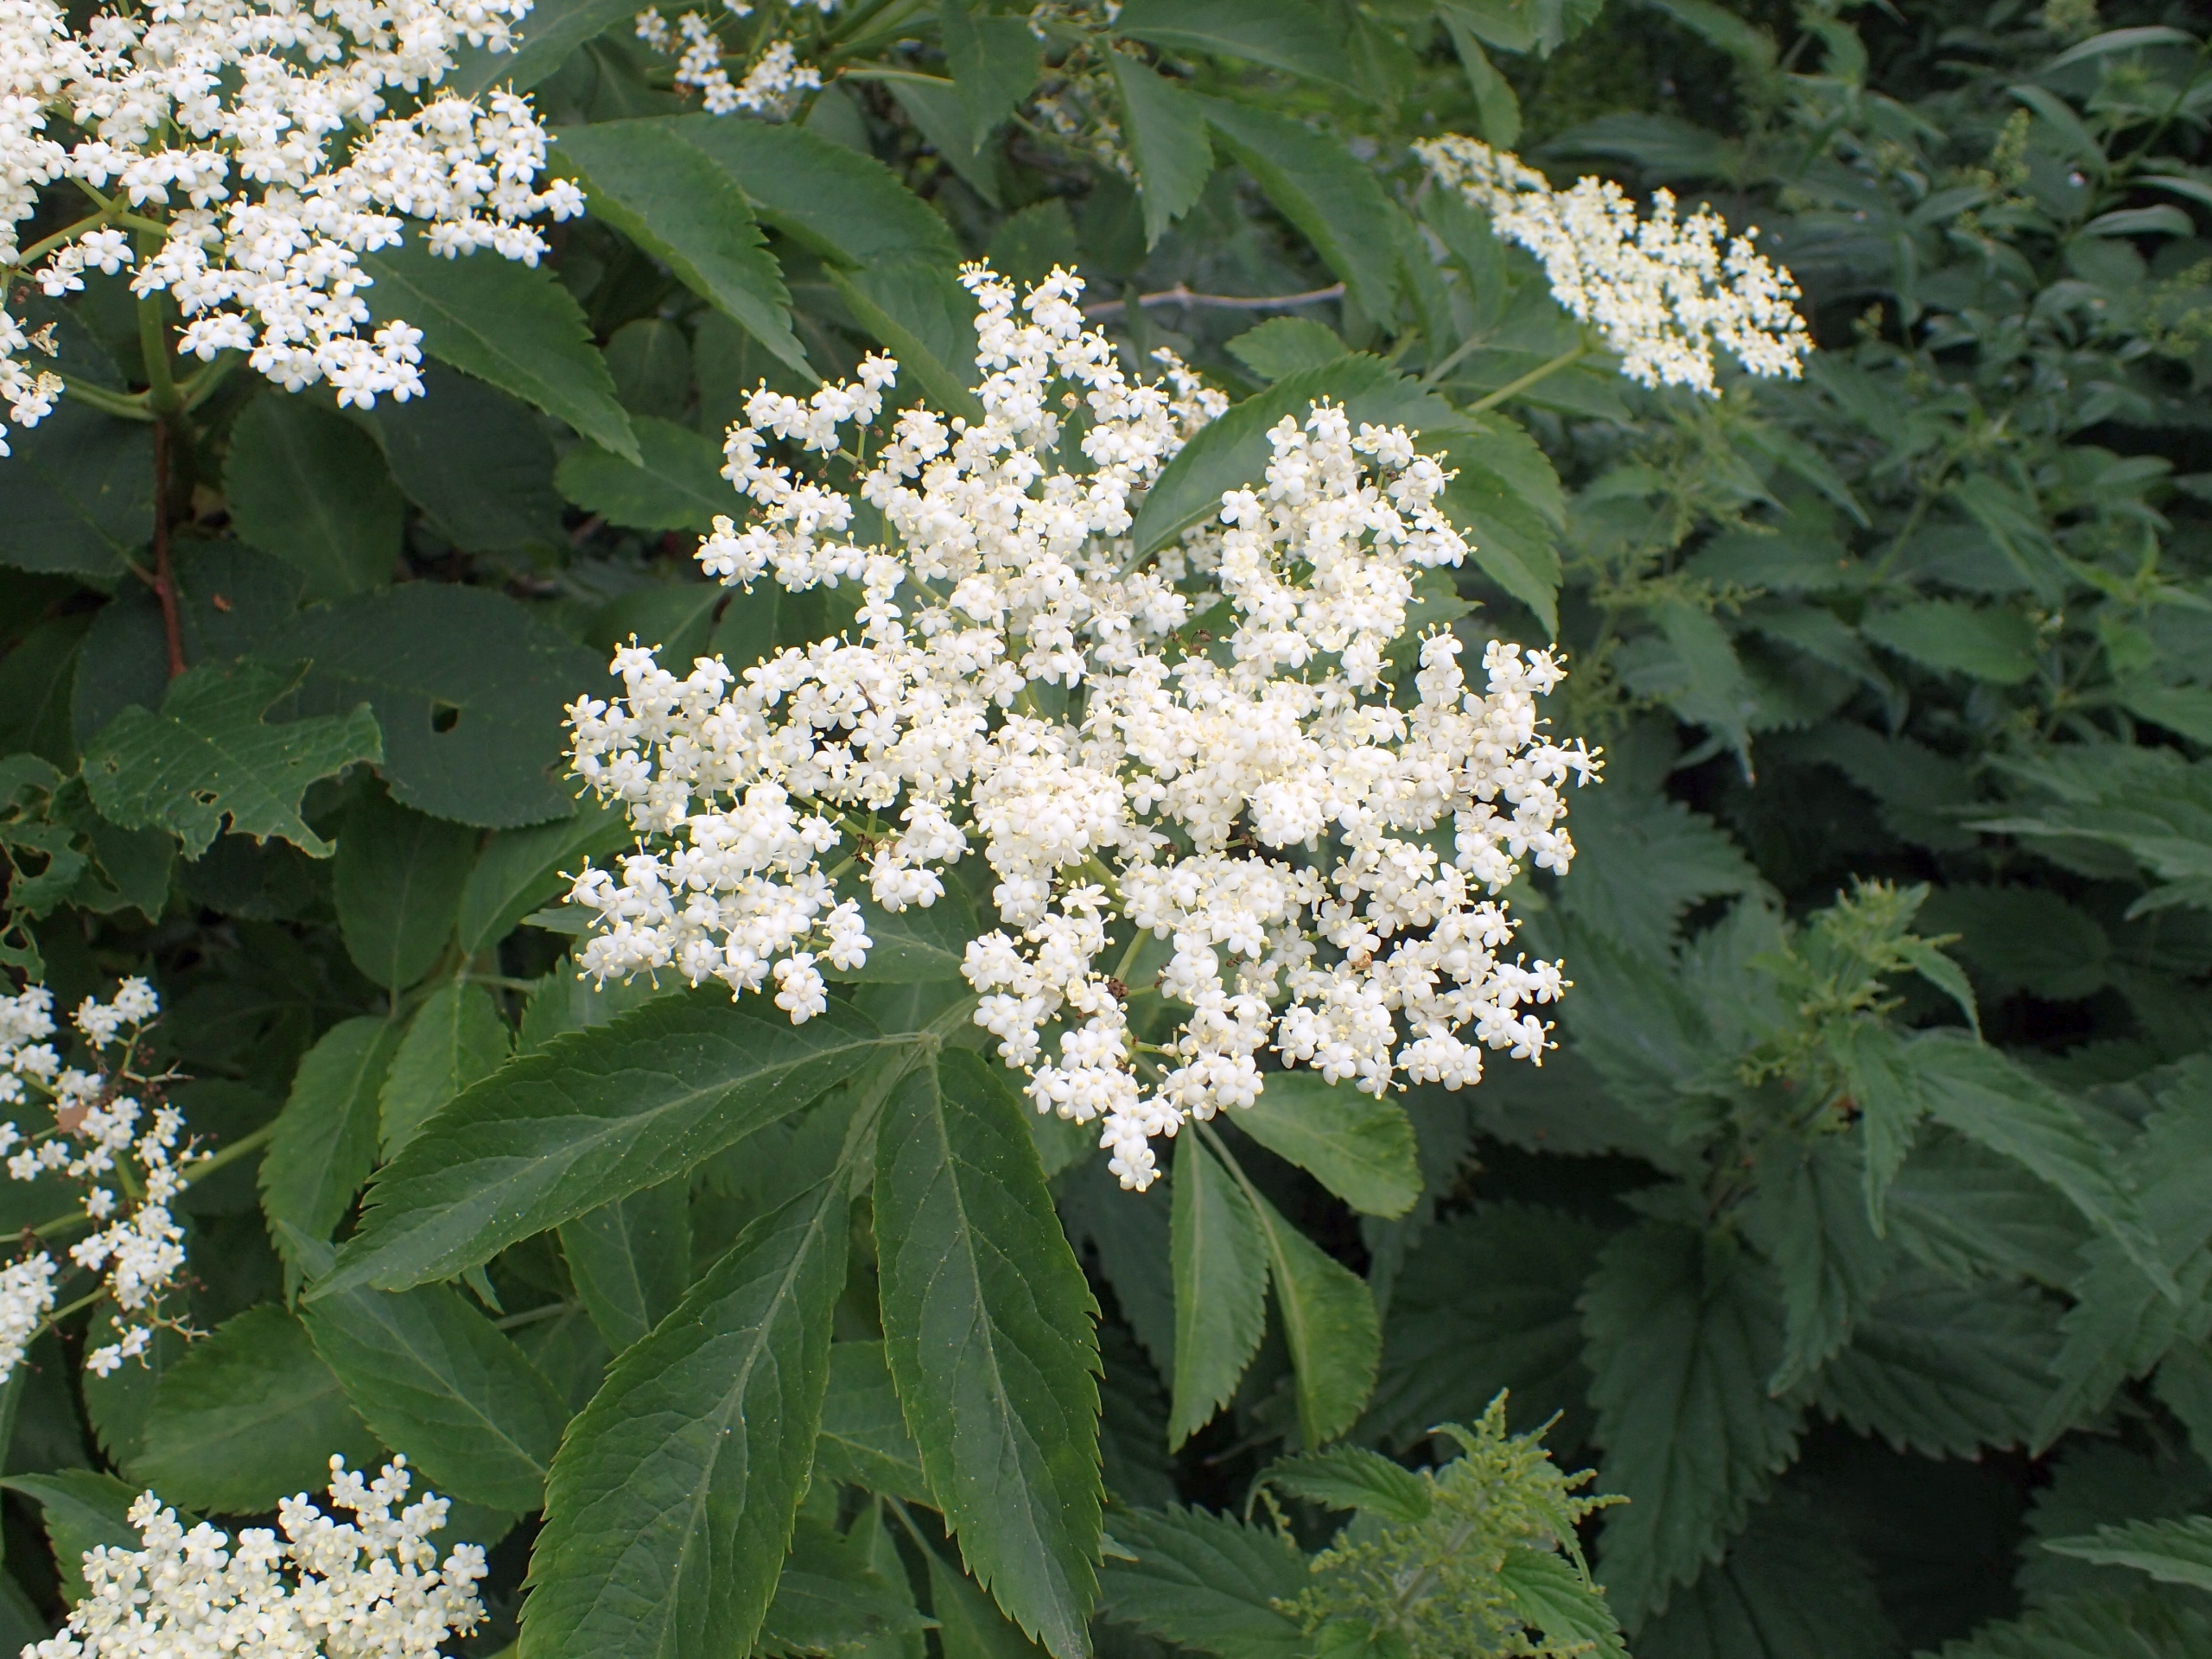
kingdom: Plantae
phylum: Tracheophyta
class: Magnoliopsida
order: Dipsacales
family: Viburnaceae
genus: Sambucus
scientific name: Sambucus nigra
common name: Almindelig hyld
